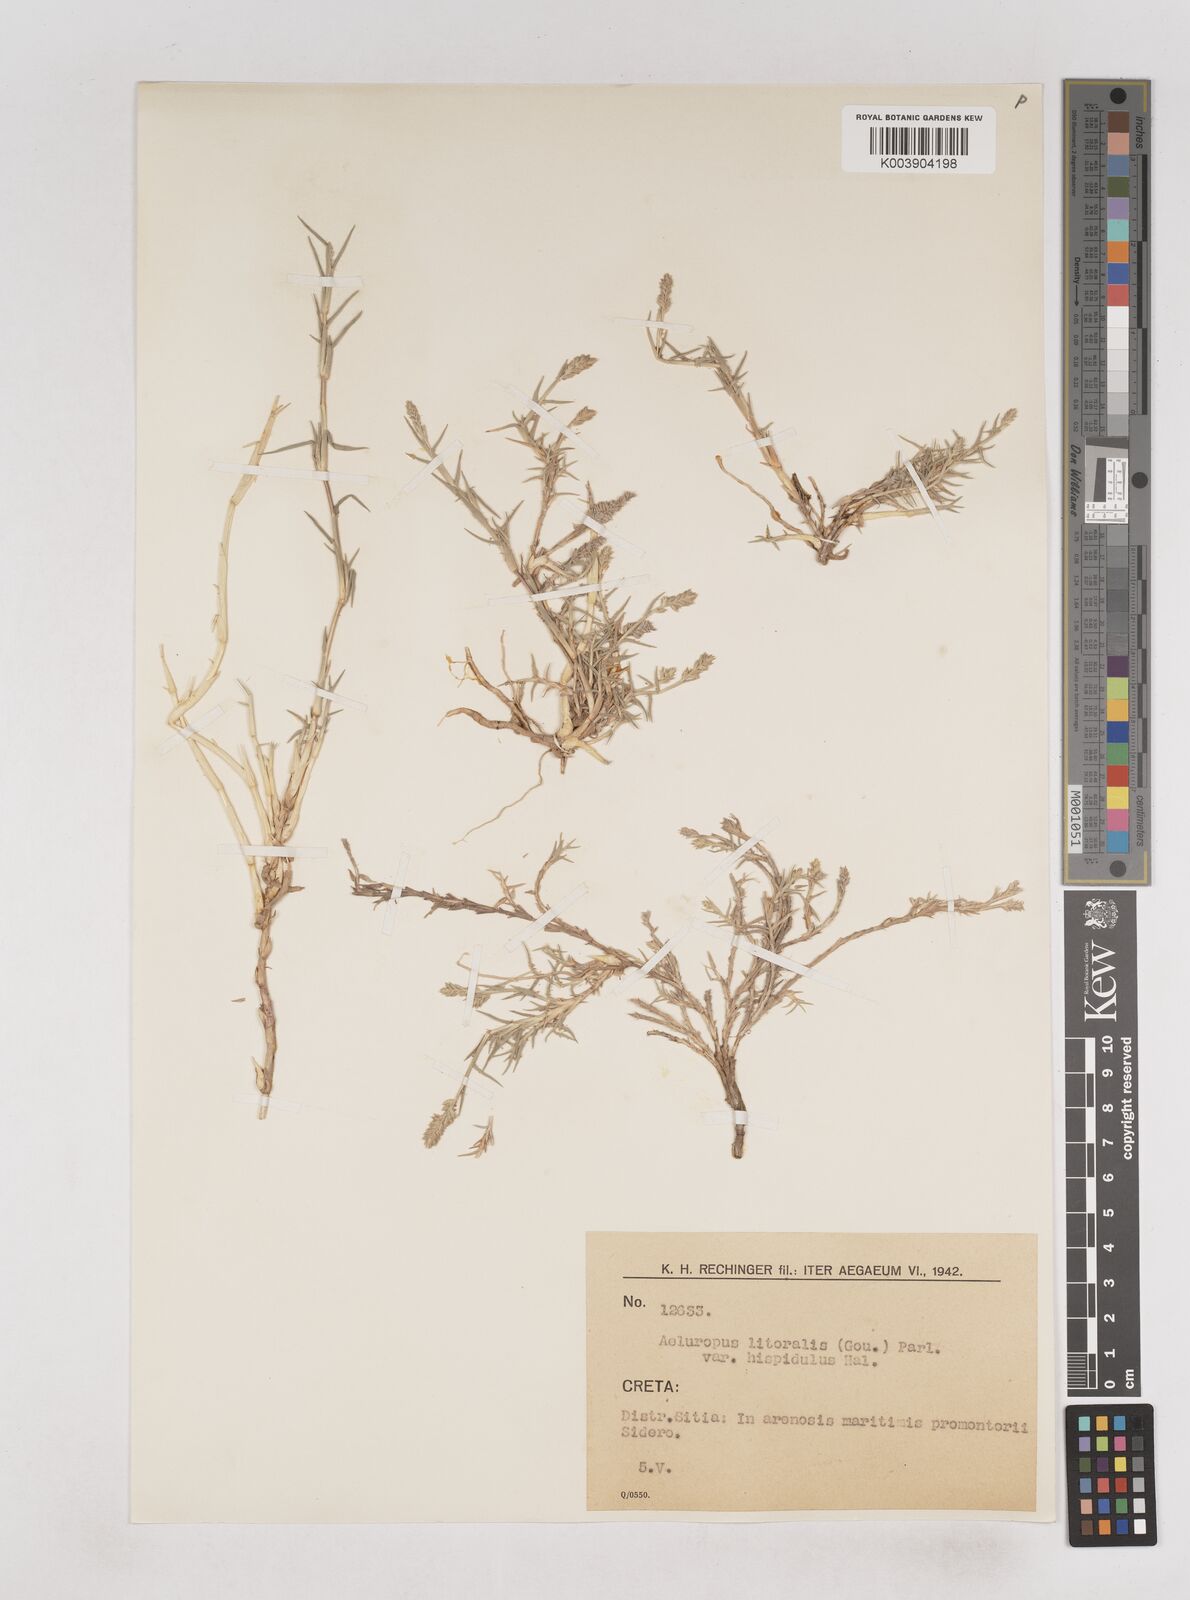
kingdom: Plantae
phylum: Tracheophyta
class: Liliopsida
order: Poales
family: Poaceae
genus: Aeluropus
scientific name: Aeluropus littoralis
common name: Indian walnut
